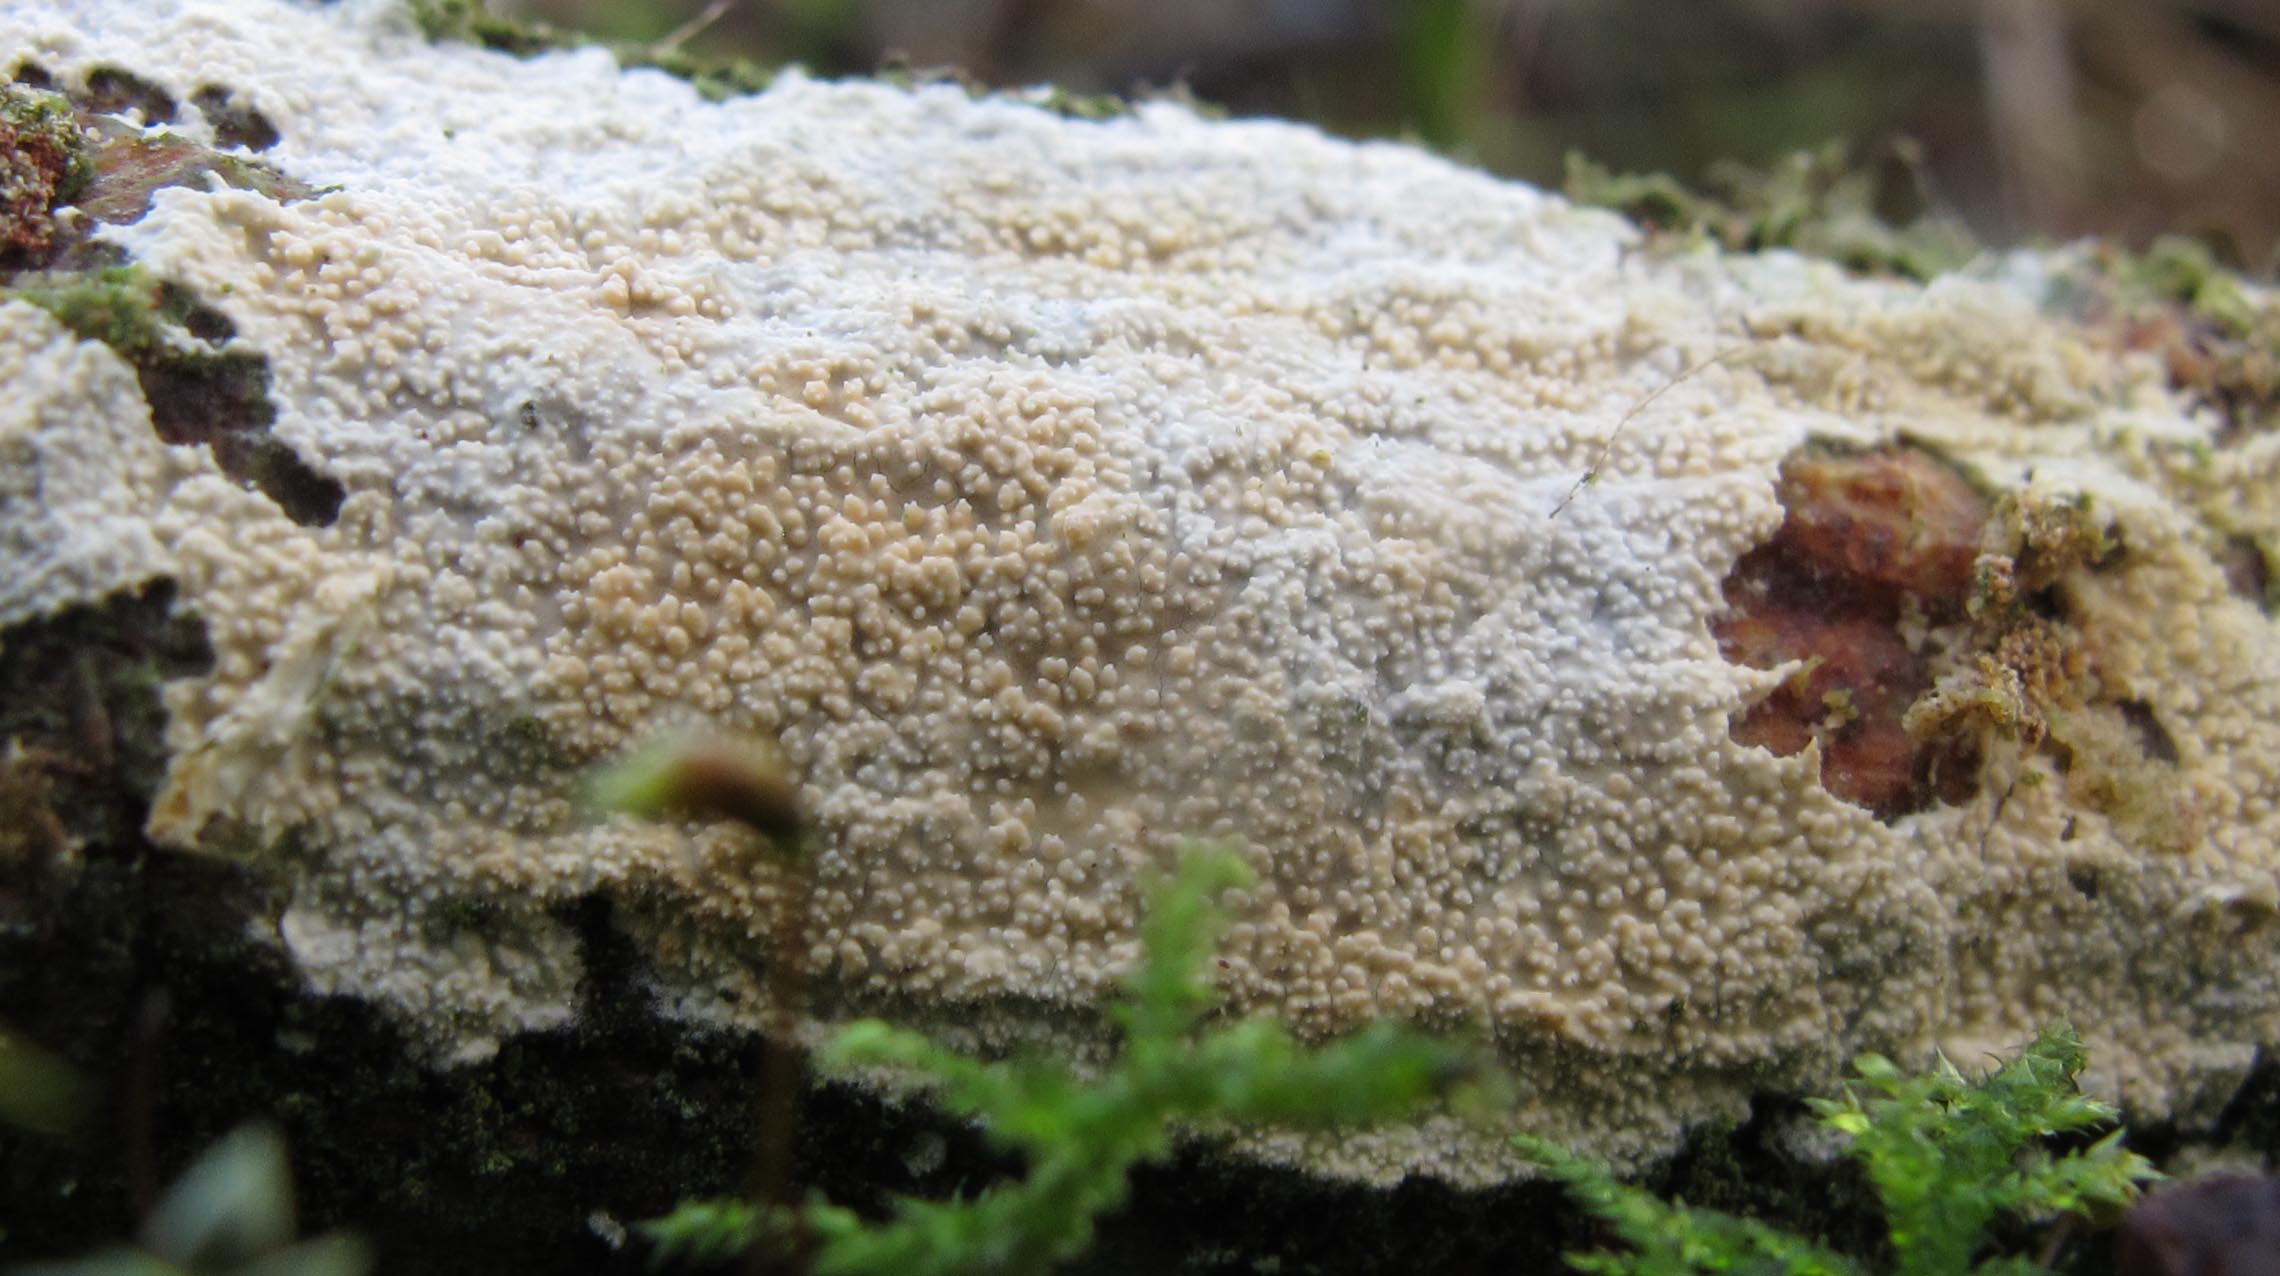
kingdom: Fungi
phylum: Basidiomycota
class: Agaricomycetes
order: Corticiales
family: Corticiaceae
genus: Lyomyces
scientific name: Lyomyces crustosus
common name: vortet hyldehinde
